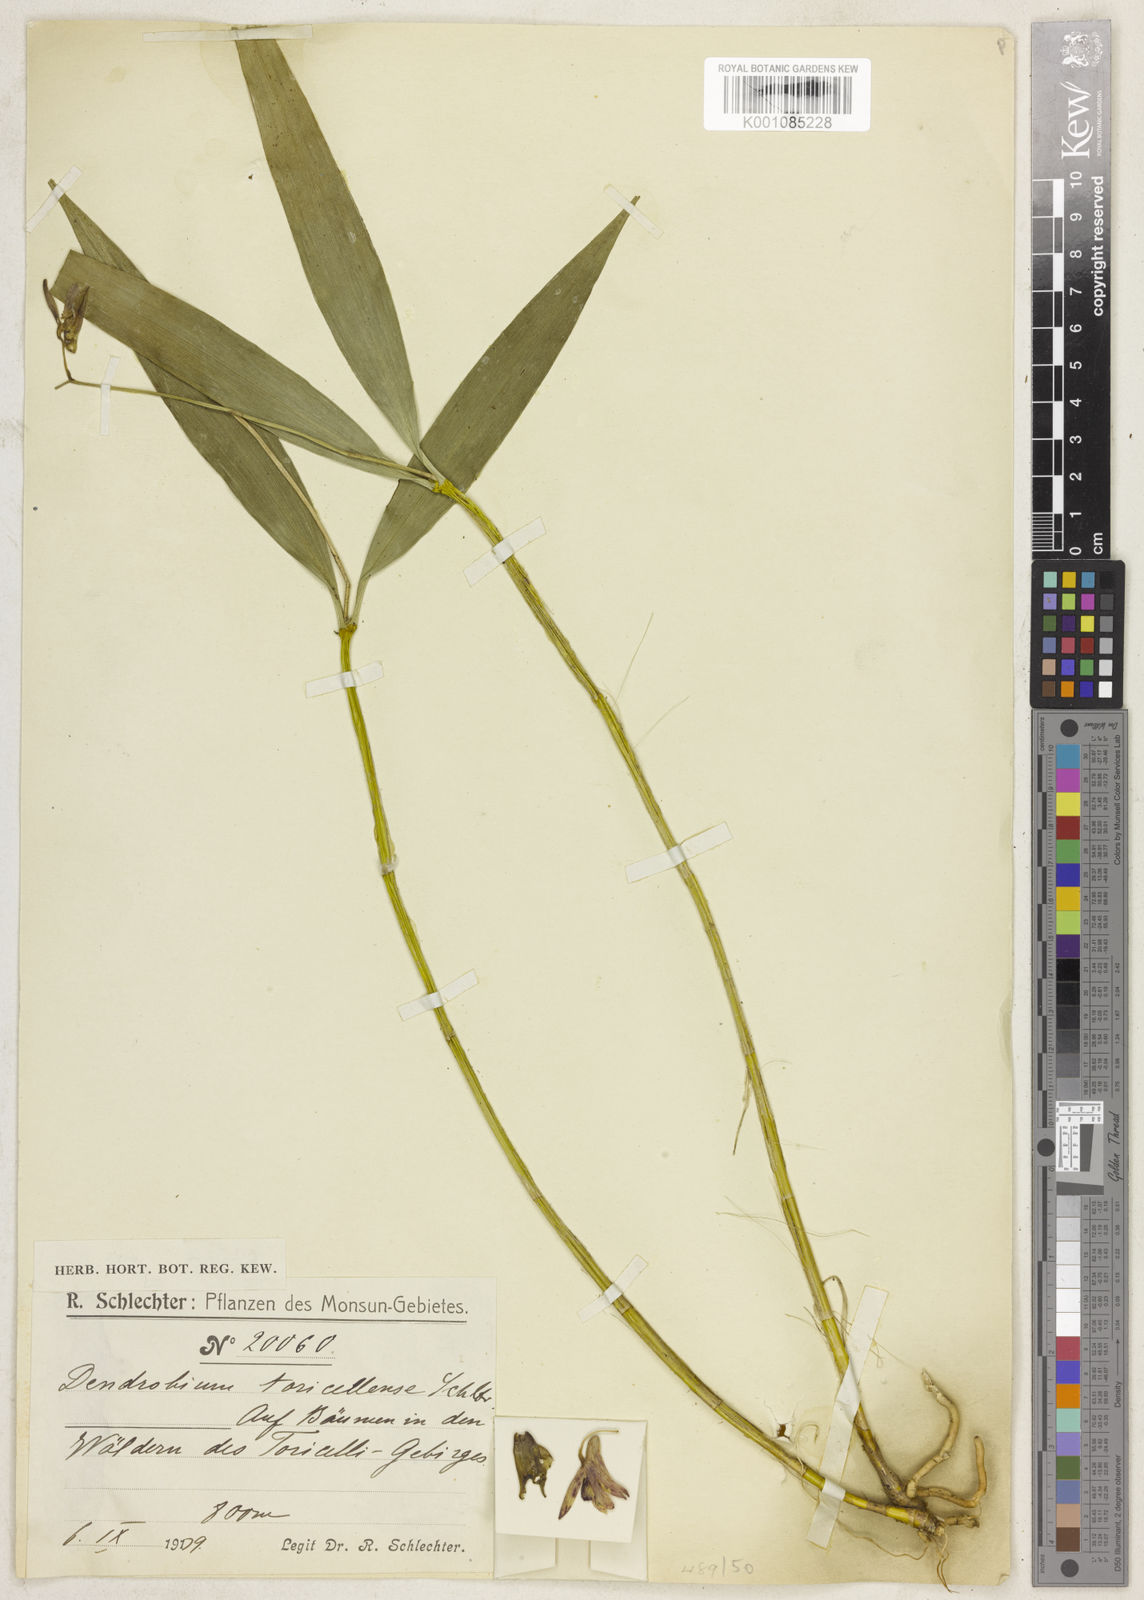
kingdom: Plantae
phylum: Tracheophyta
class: Liliopsida
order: Asparagales
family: Orchidaceae
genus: Dendrobium
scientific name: Dendrobium torricellense
